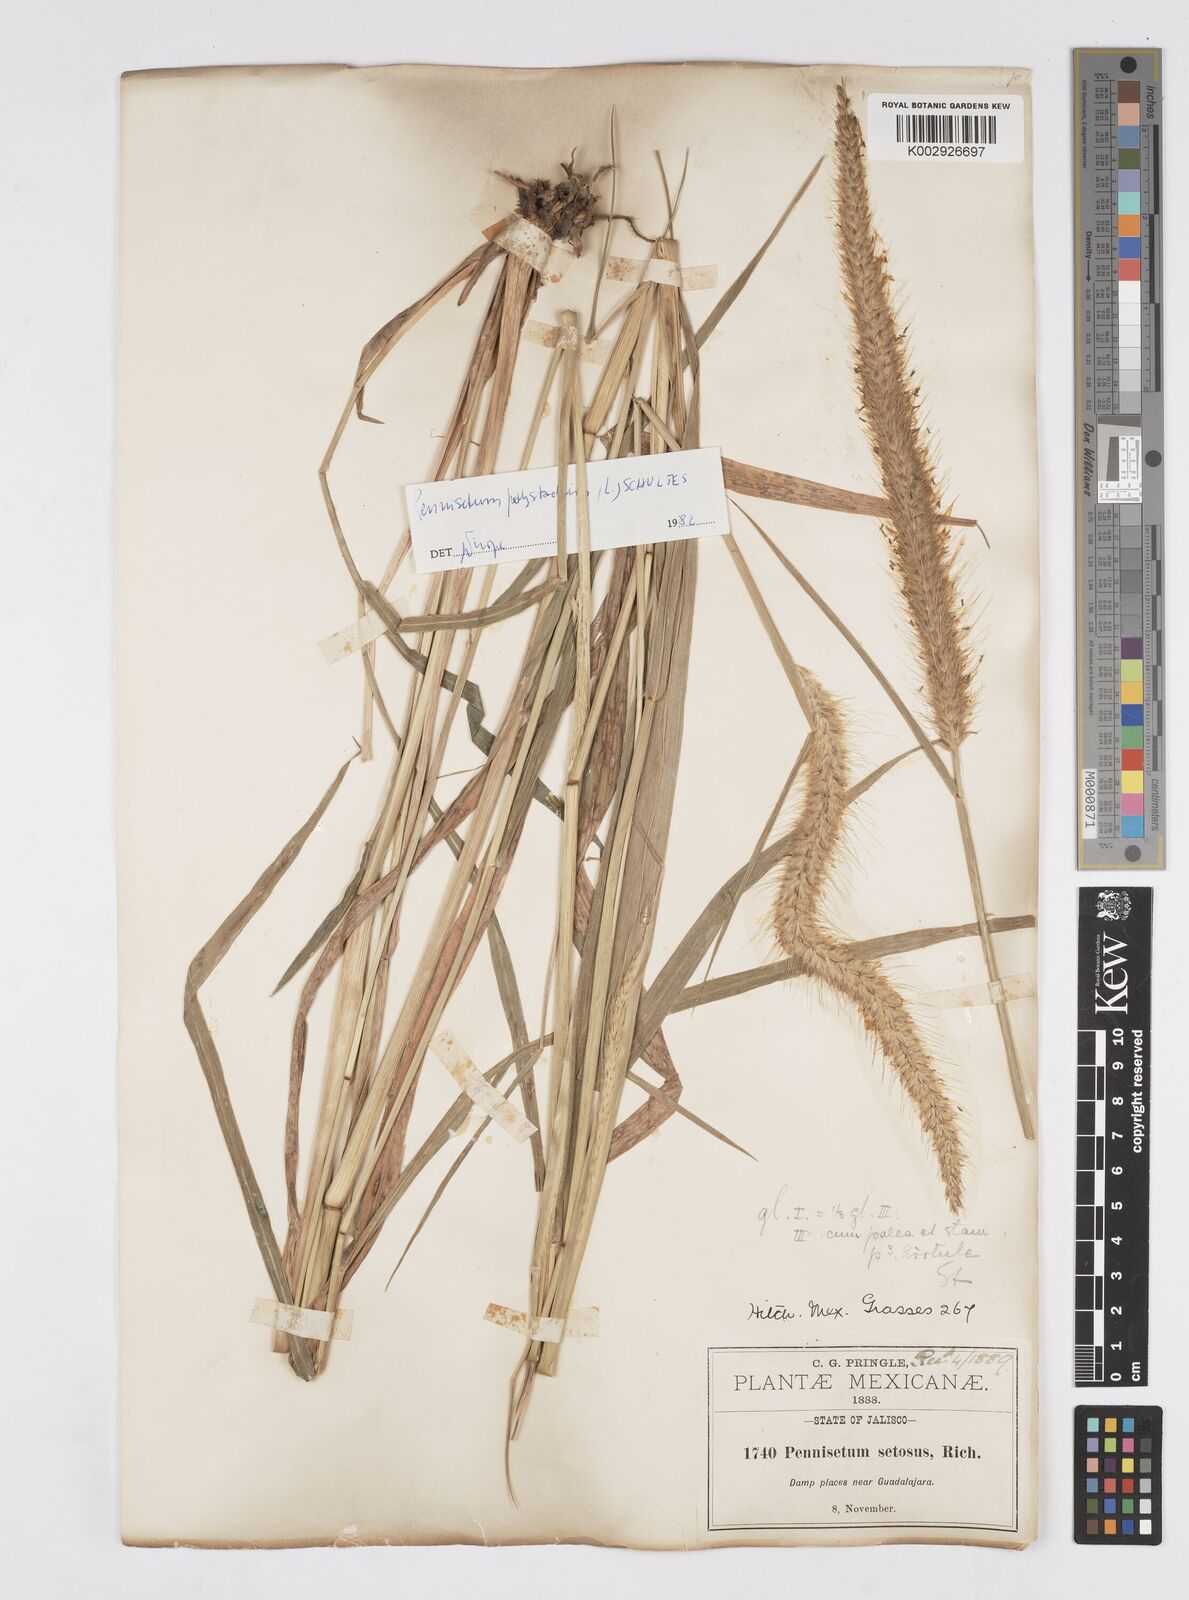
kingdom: Plantae
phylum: Tracheophyta
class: Liliopsida
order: Poales
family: Poaceae
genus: Cenchrus
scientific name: Cenchrus setosus
